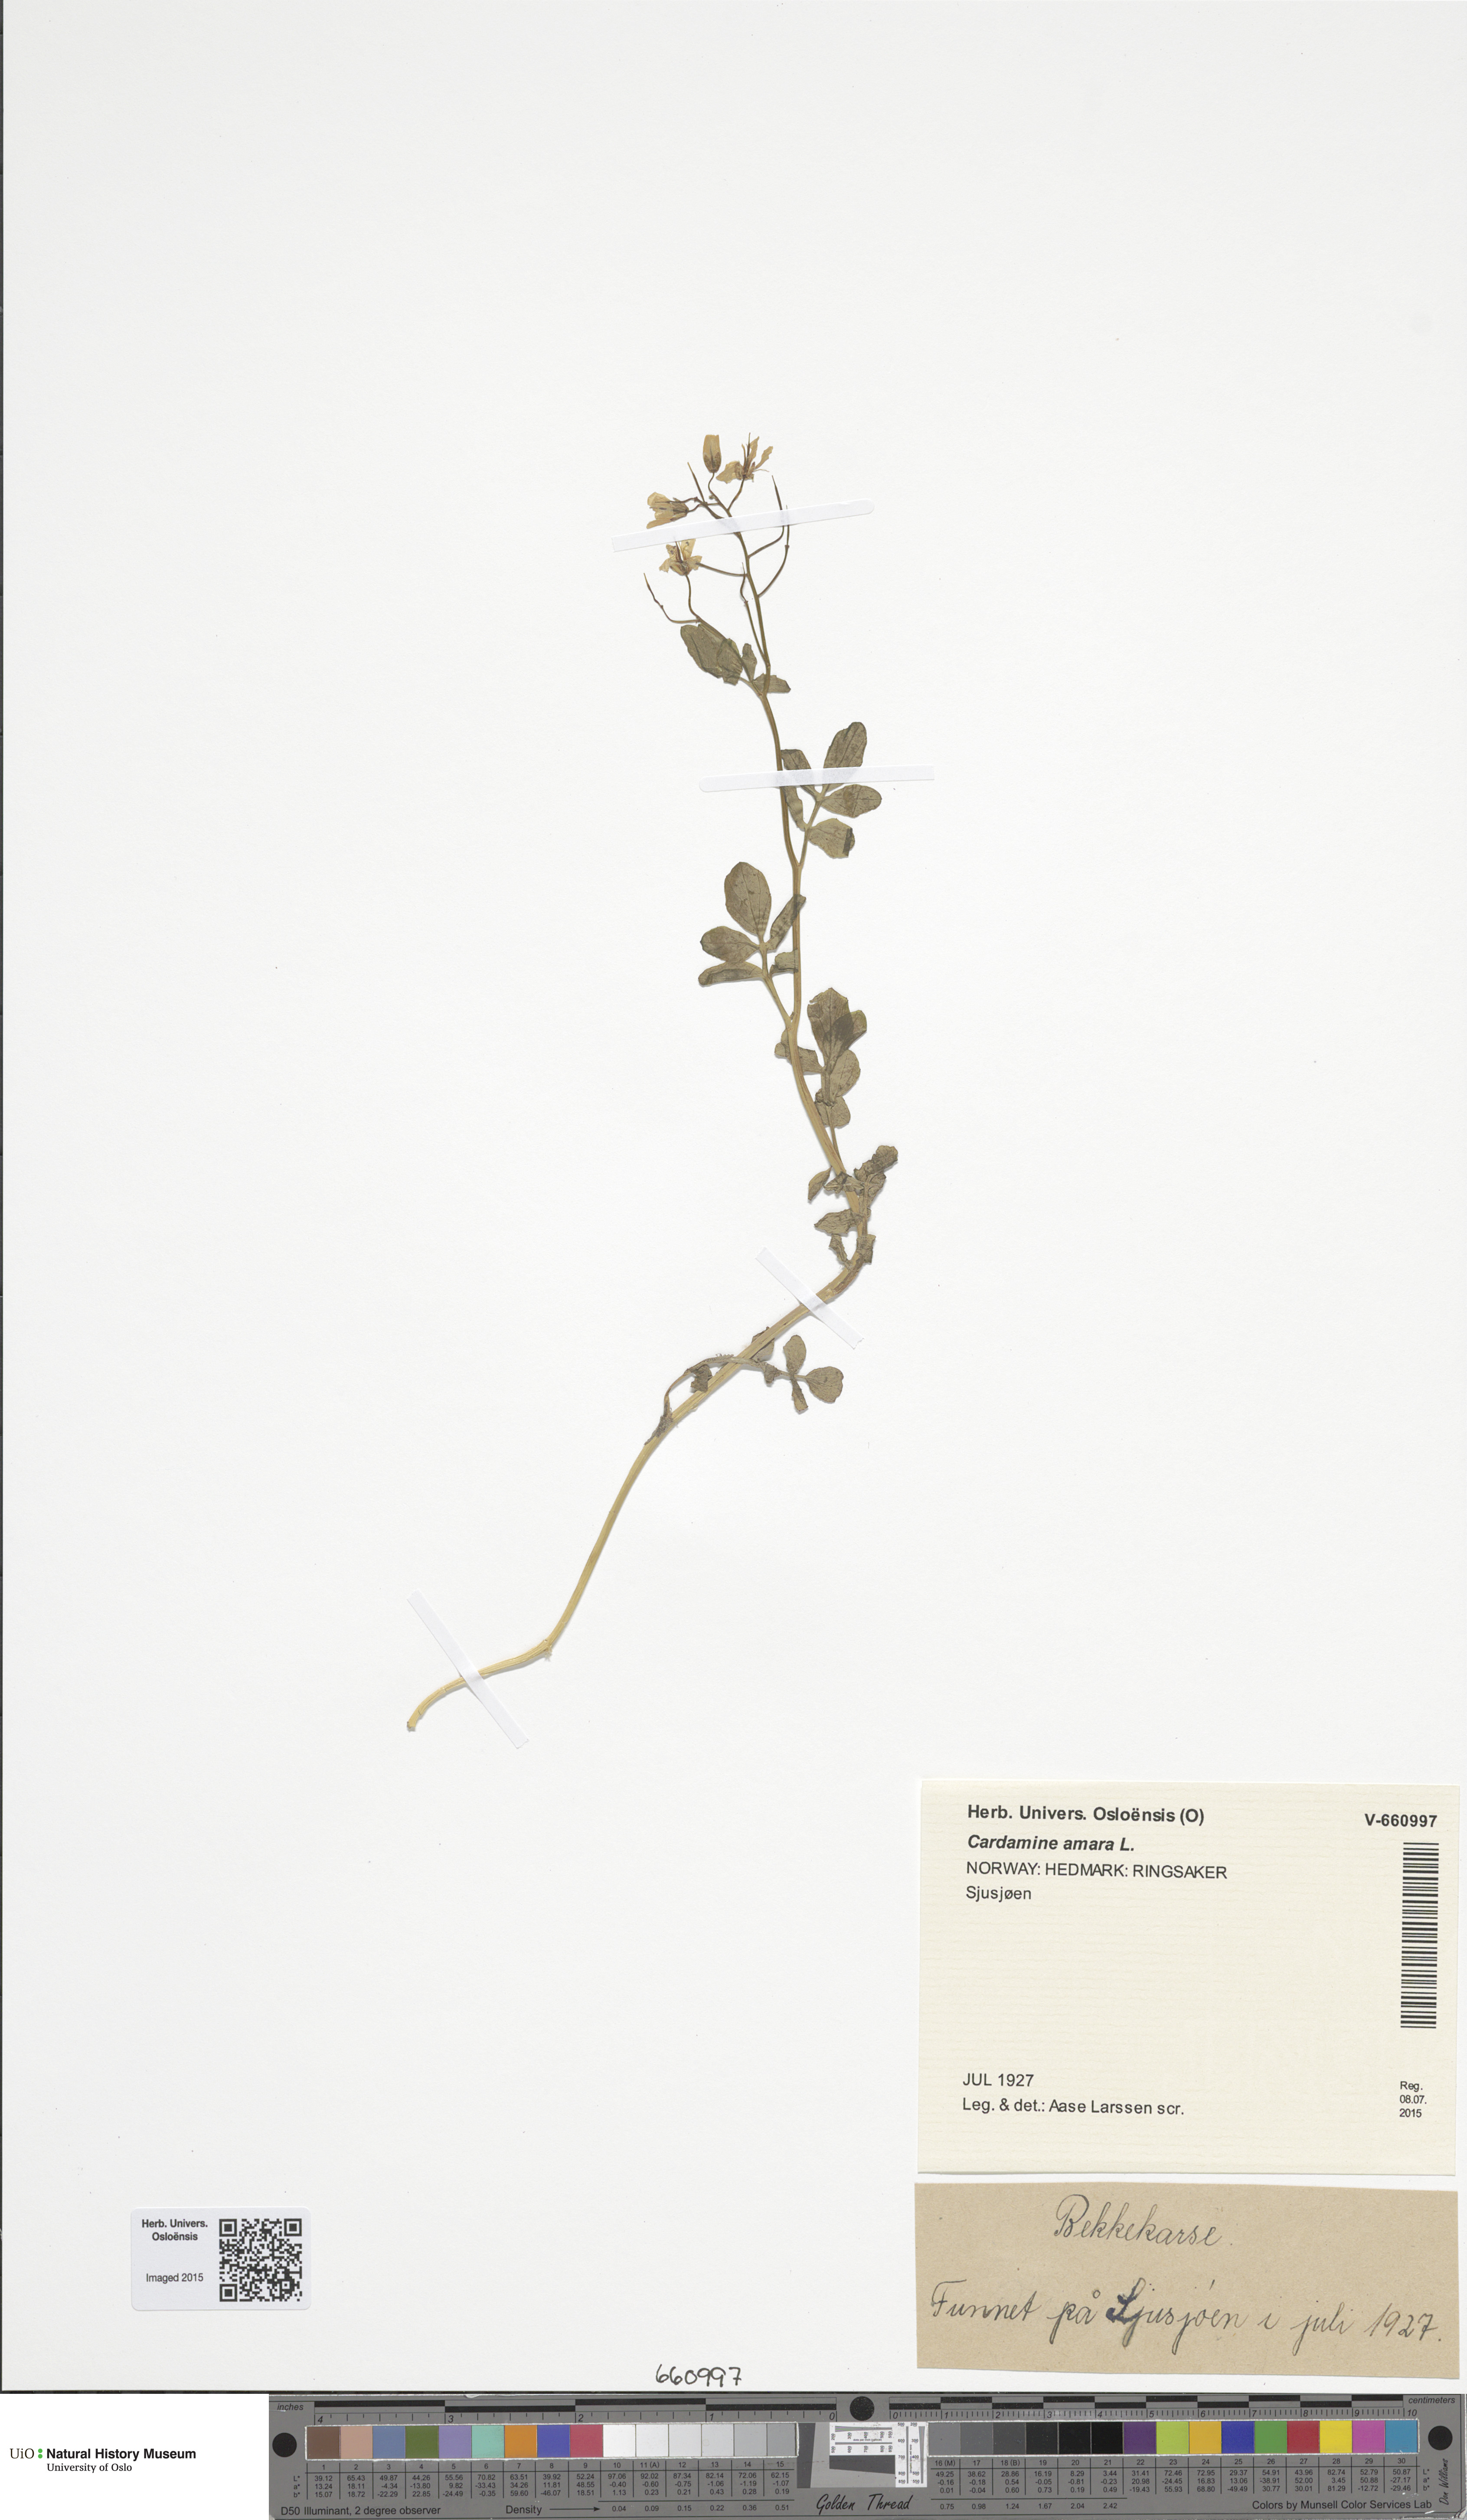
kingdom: Plantae
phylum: Tracheophyta
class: Magnoliopsida
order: Brassicales
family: Brassicaceae
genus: Cardamine
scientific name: Cardamine amara
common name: Large bitter-cress
